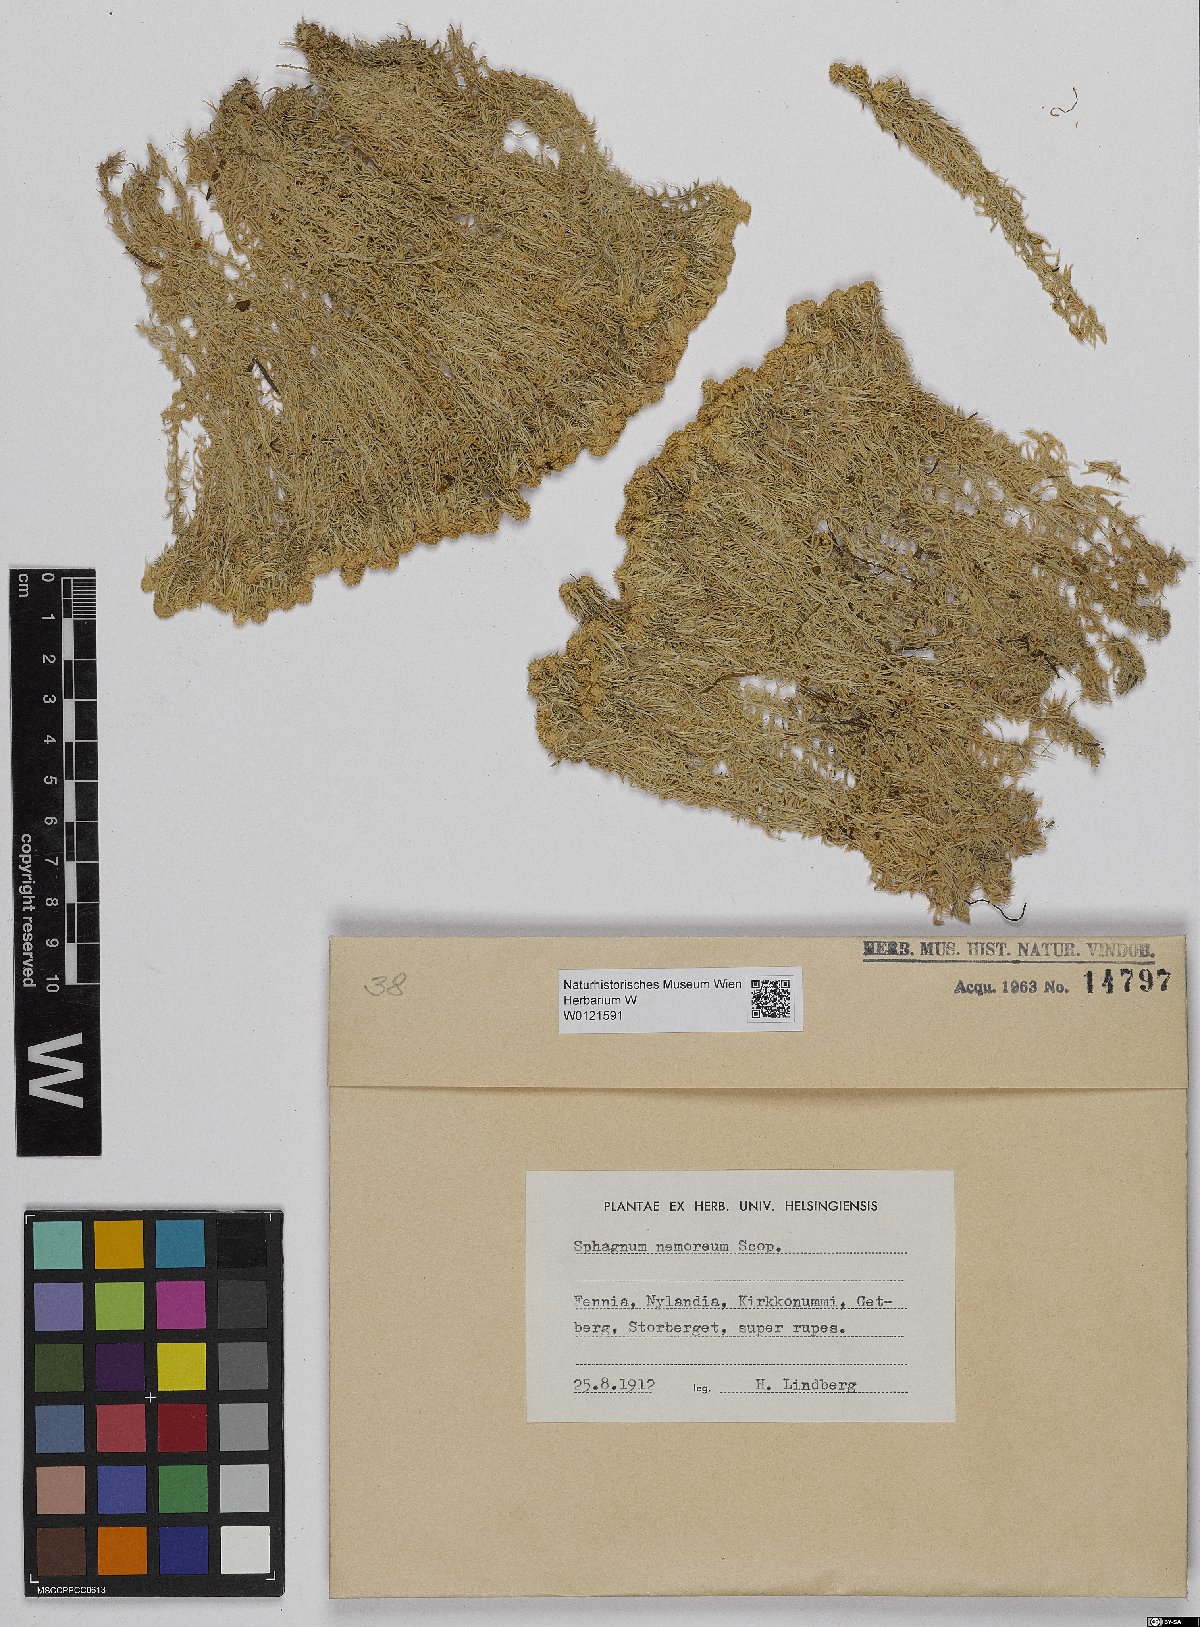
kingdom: Plantae
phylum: Bryophyta
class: Sphagnopsida
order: Sphagnales
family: Sphagnaceae
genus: Sphagnum
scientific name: Sphagnum capillifolium
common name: Small red peat moss
